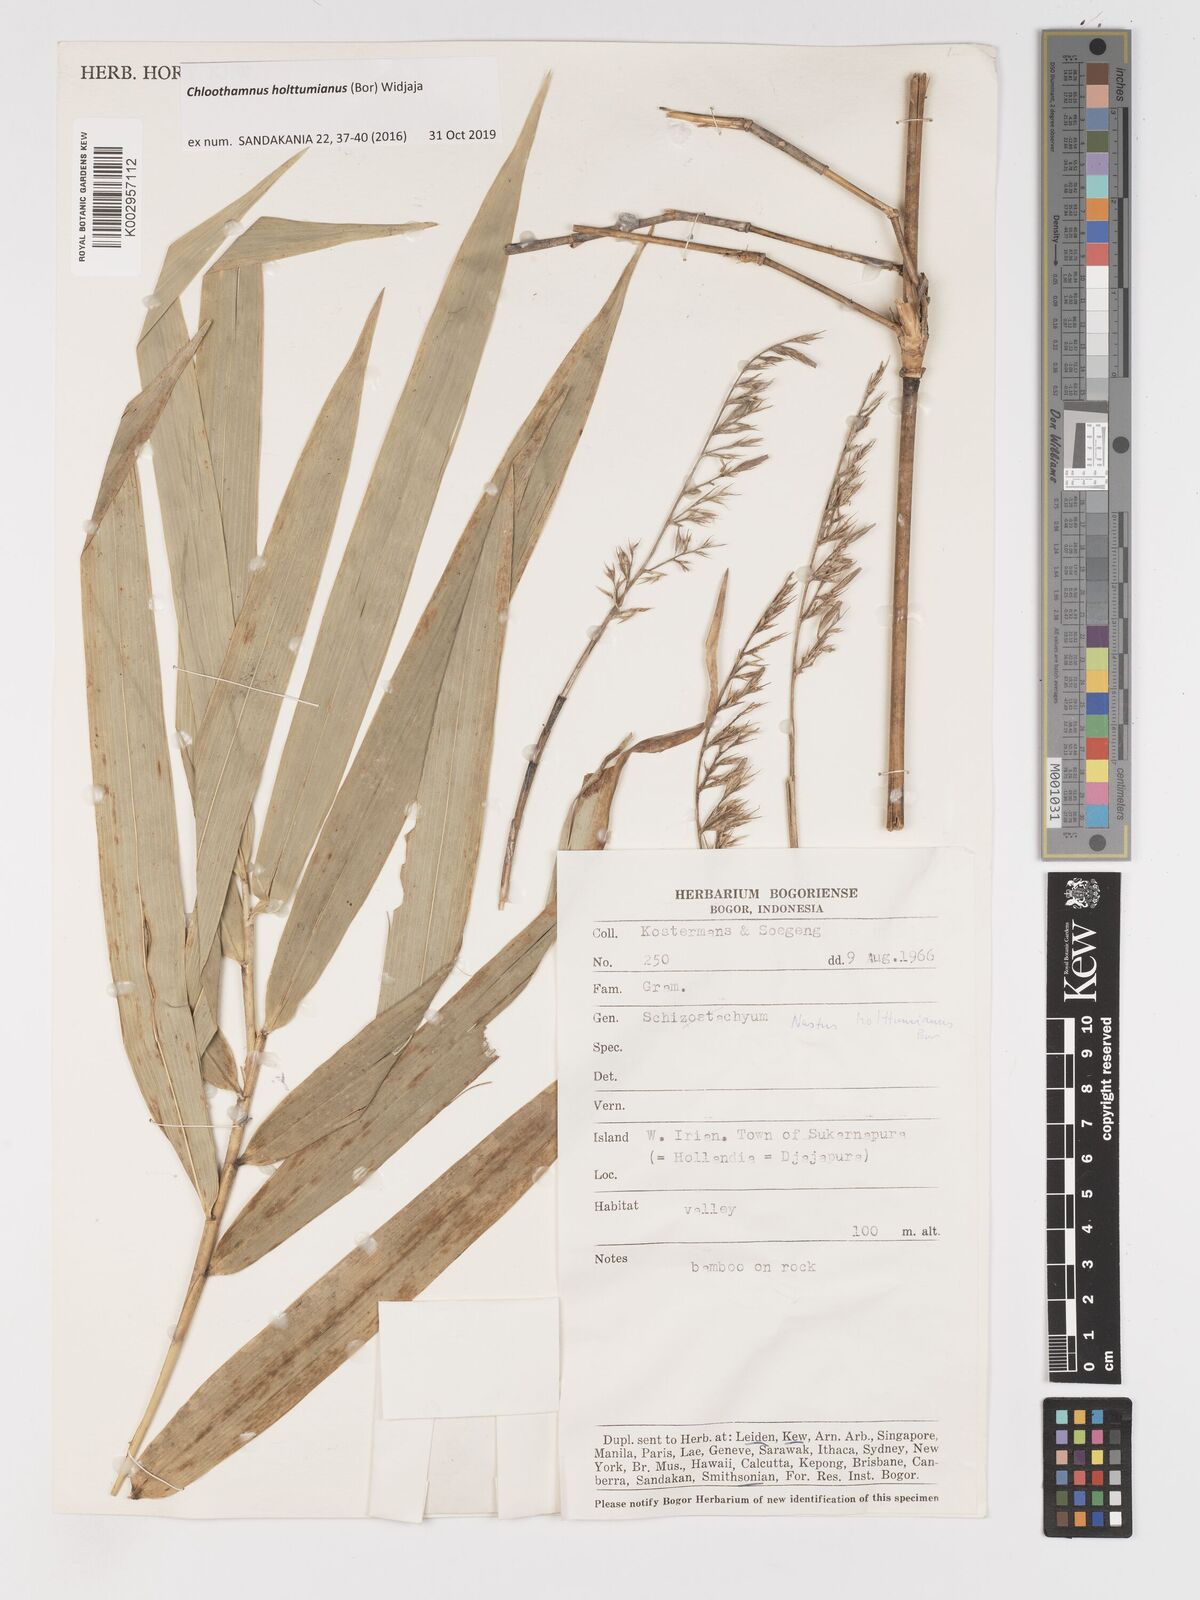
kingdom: Plantae
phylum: Tracheophyta
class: Liliopsida
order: Poales
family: Poaceae
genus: Chloothamnus
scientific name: Chloothamnus holttumianus
